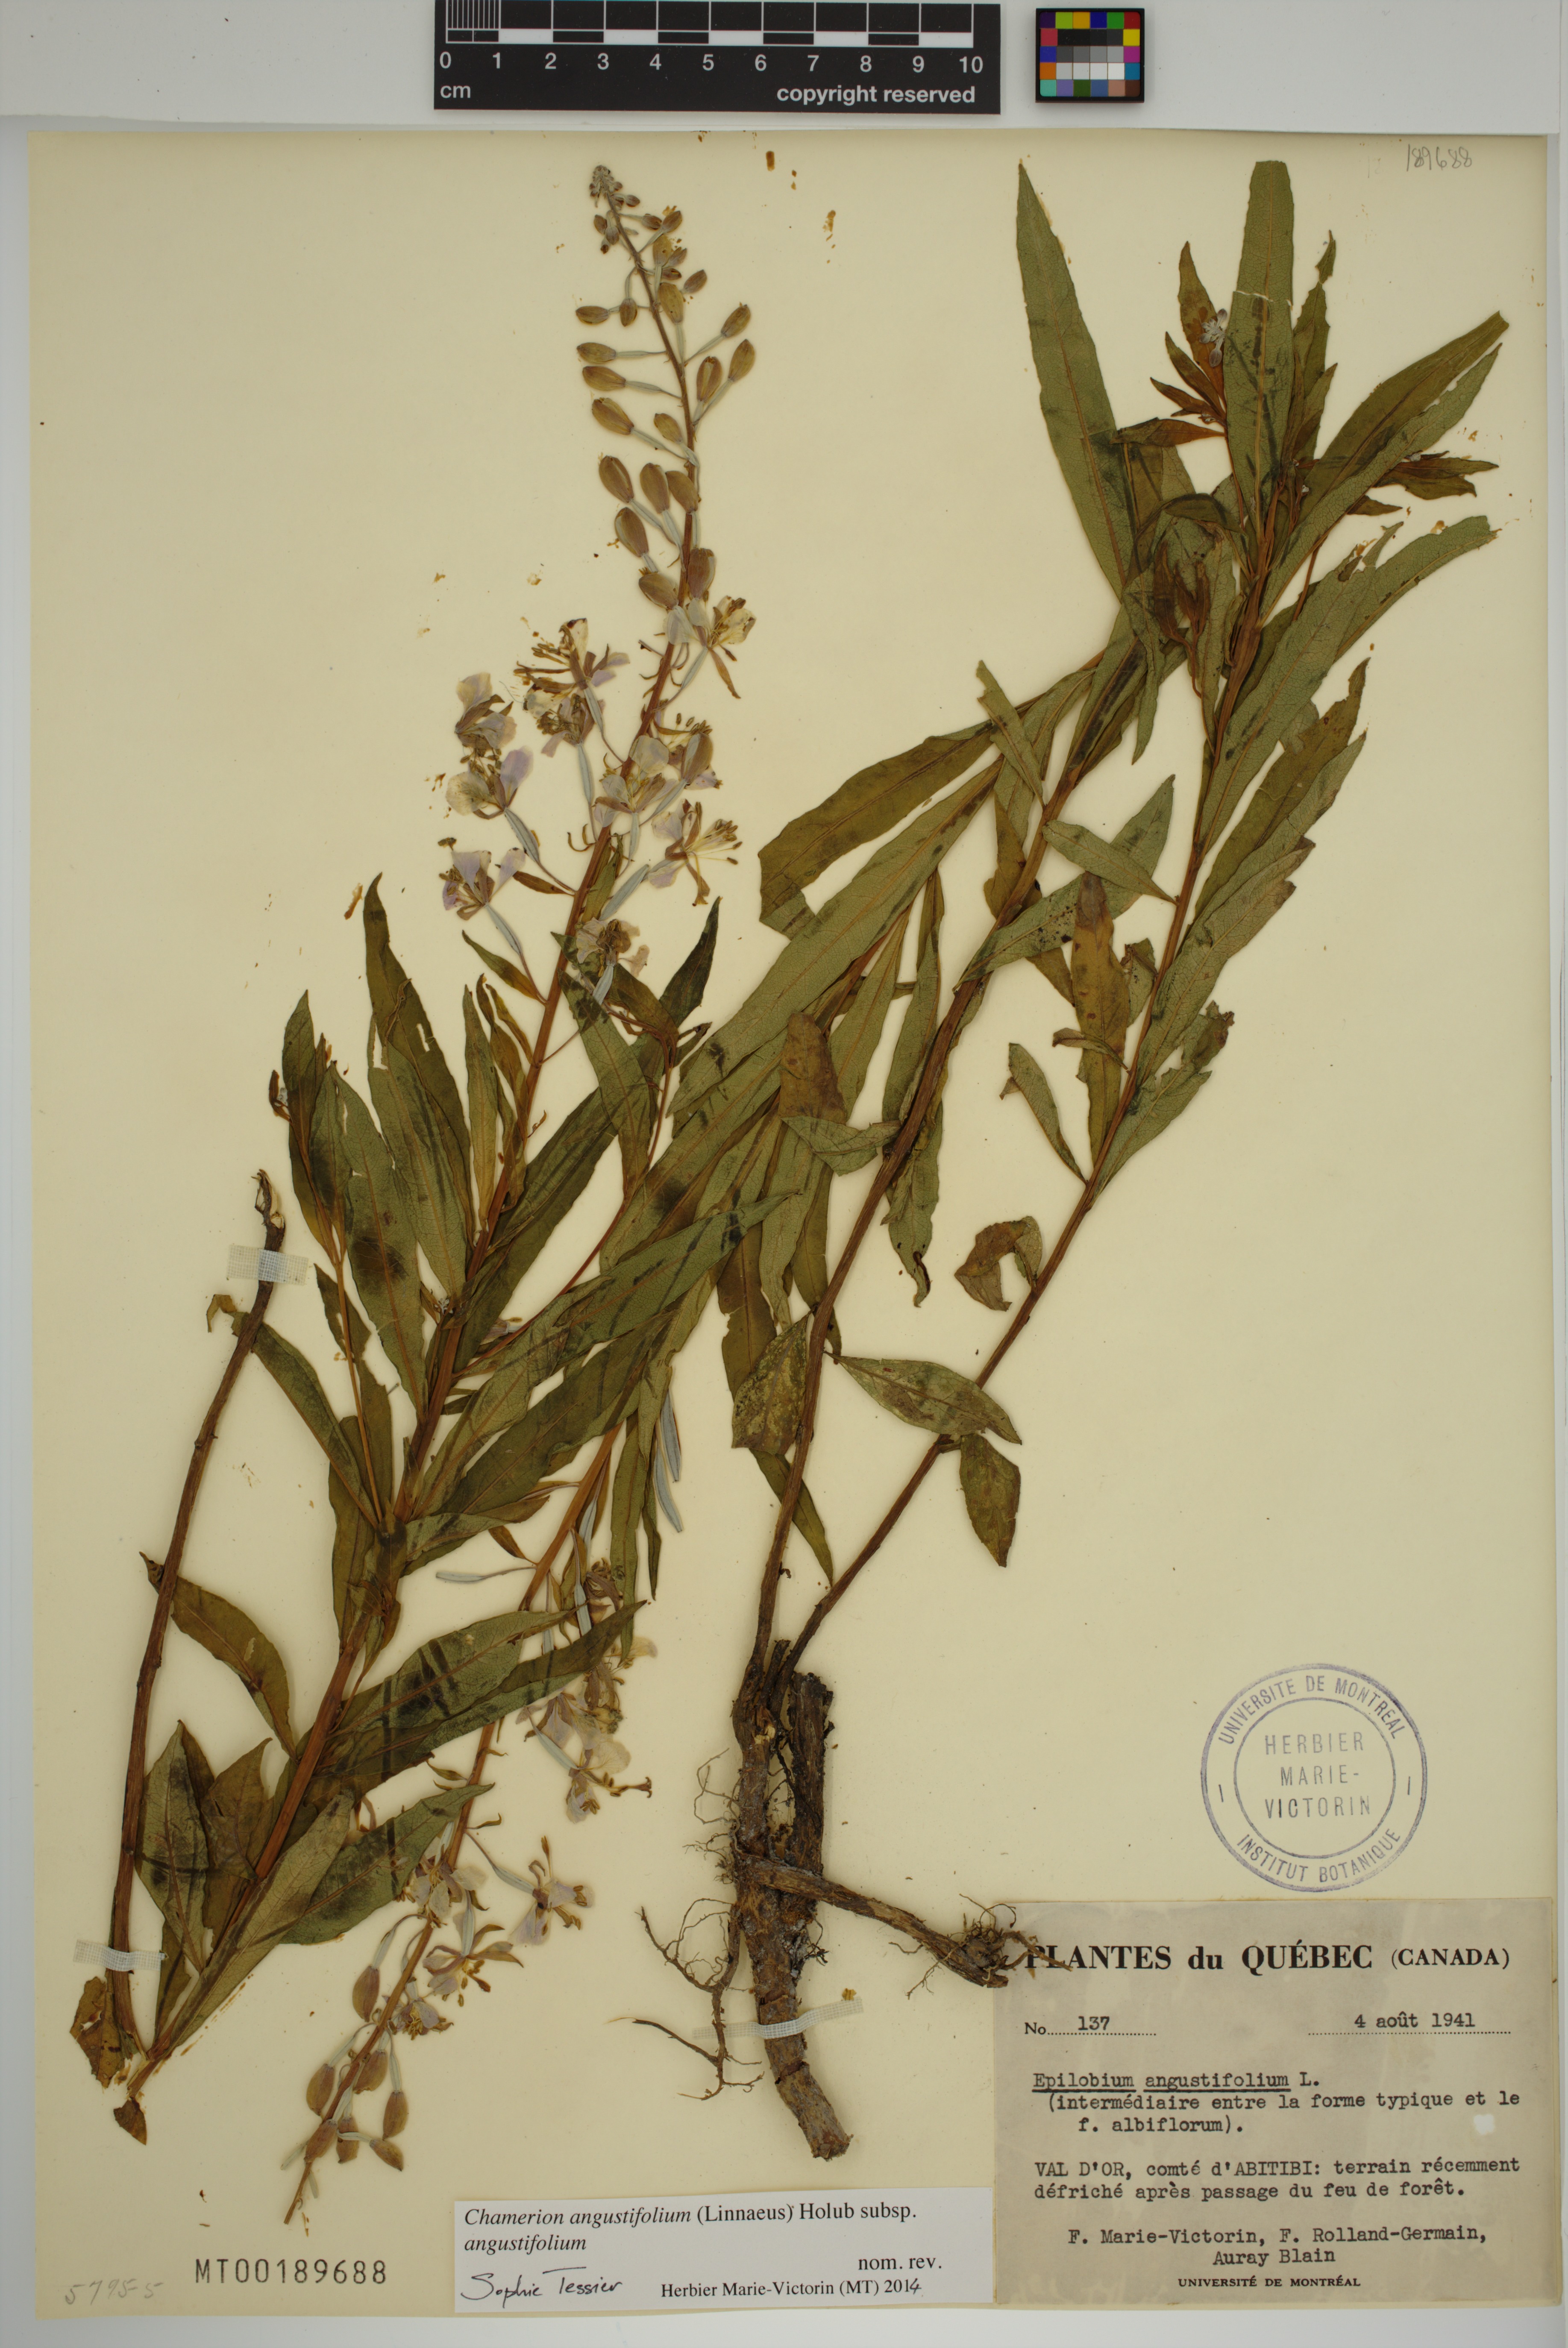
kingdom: Plantae
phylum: Tracheophyta
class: Magnoliopsida
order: Myrtales
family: Onagraceae
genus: Chamaenerion
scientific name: Chamaenerion angustifolium
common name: Fireweed
